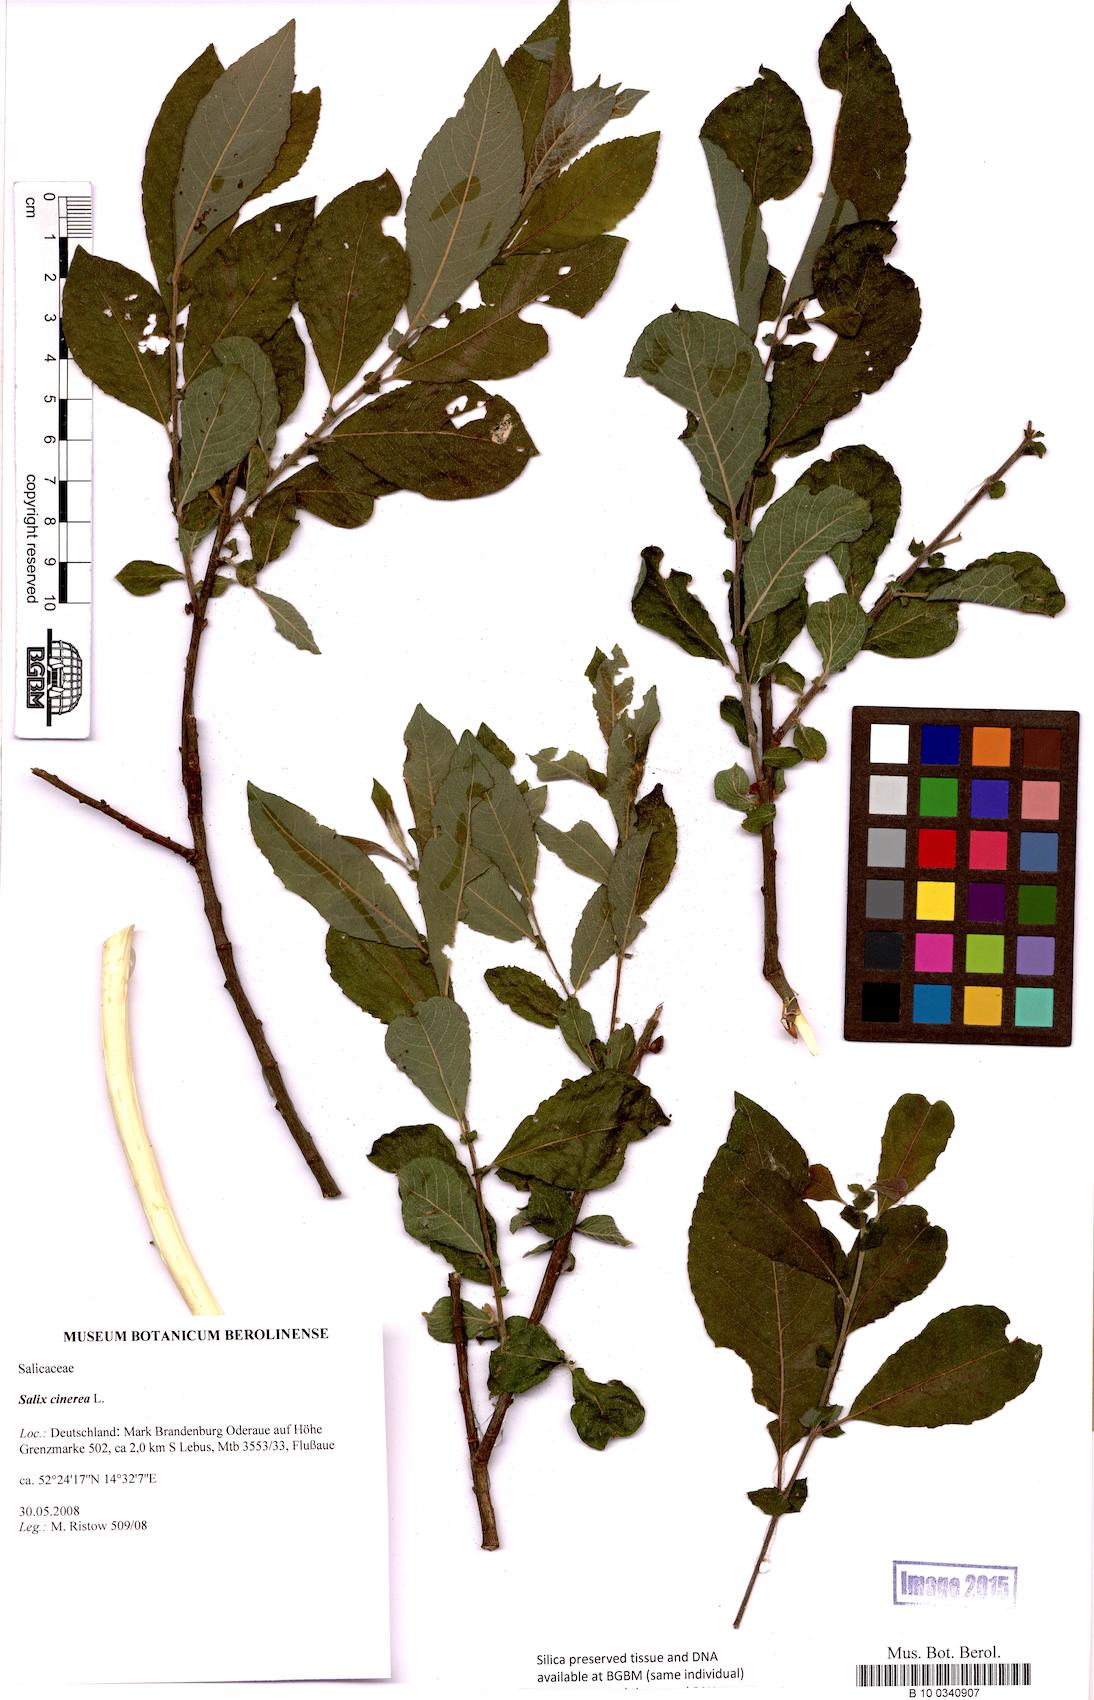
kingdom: Plantae
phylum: Tracheophyta
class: Magnoliopsida
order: Malpighiales
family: Salicaceae
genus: Salix
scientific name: Salix cinerea
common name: Common sallow
